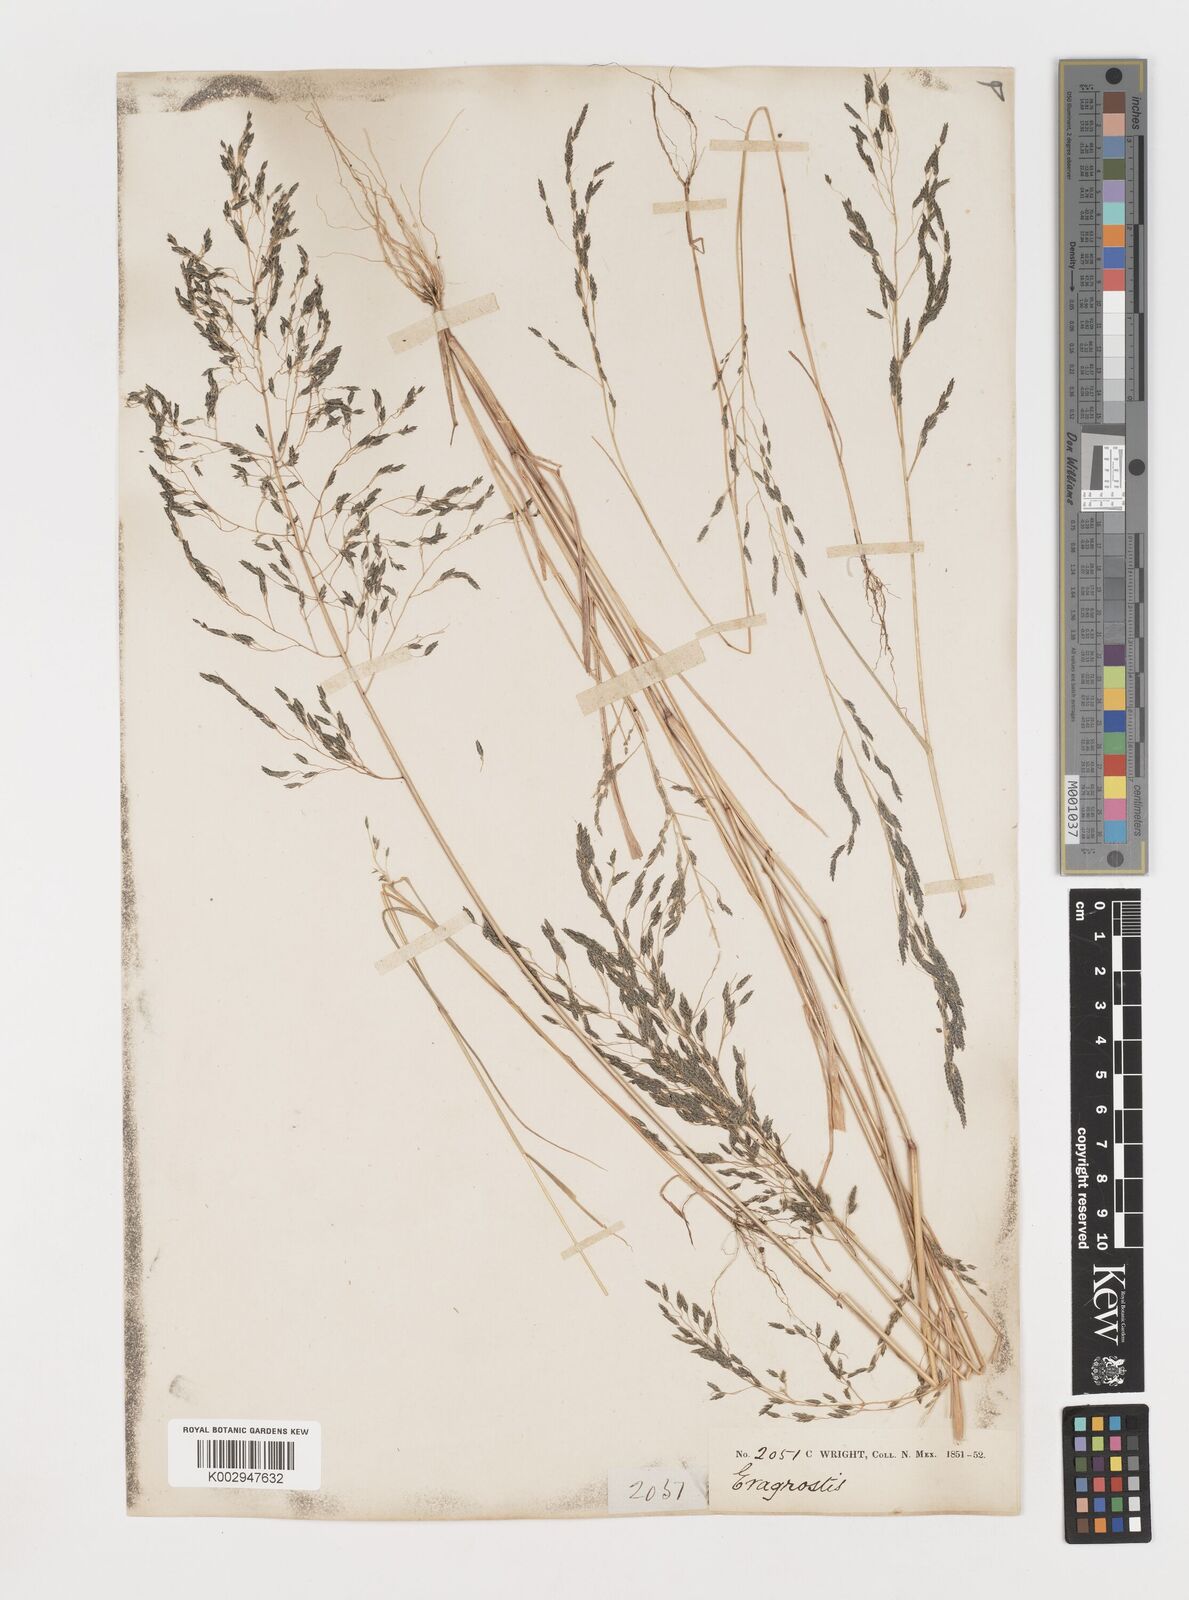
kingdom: Plantae
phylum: Tracheophyta
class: Liliopsida
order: Poales
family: Poaceae
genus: Eragrostis
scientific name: Eragrostis mexicana
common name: Mexican love grass
